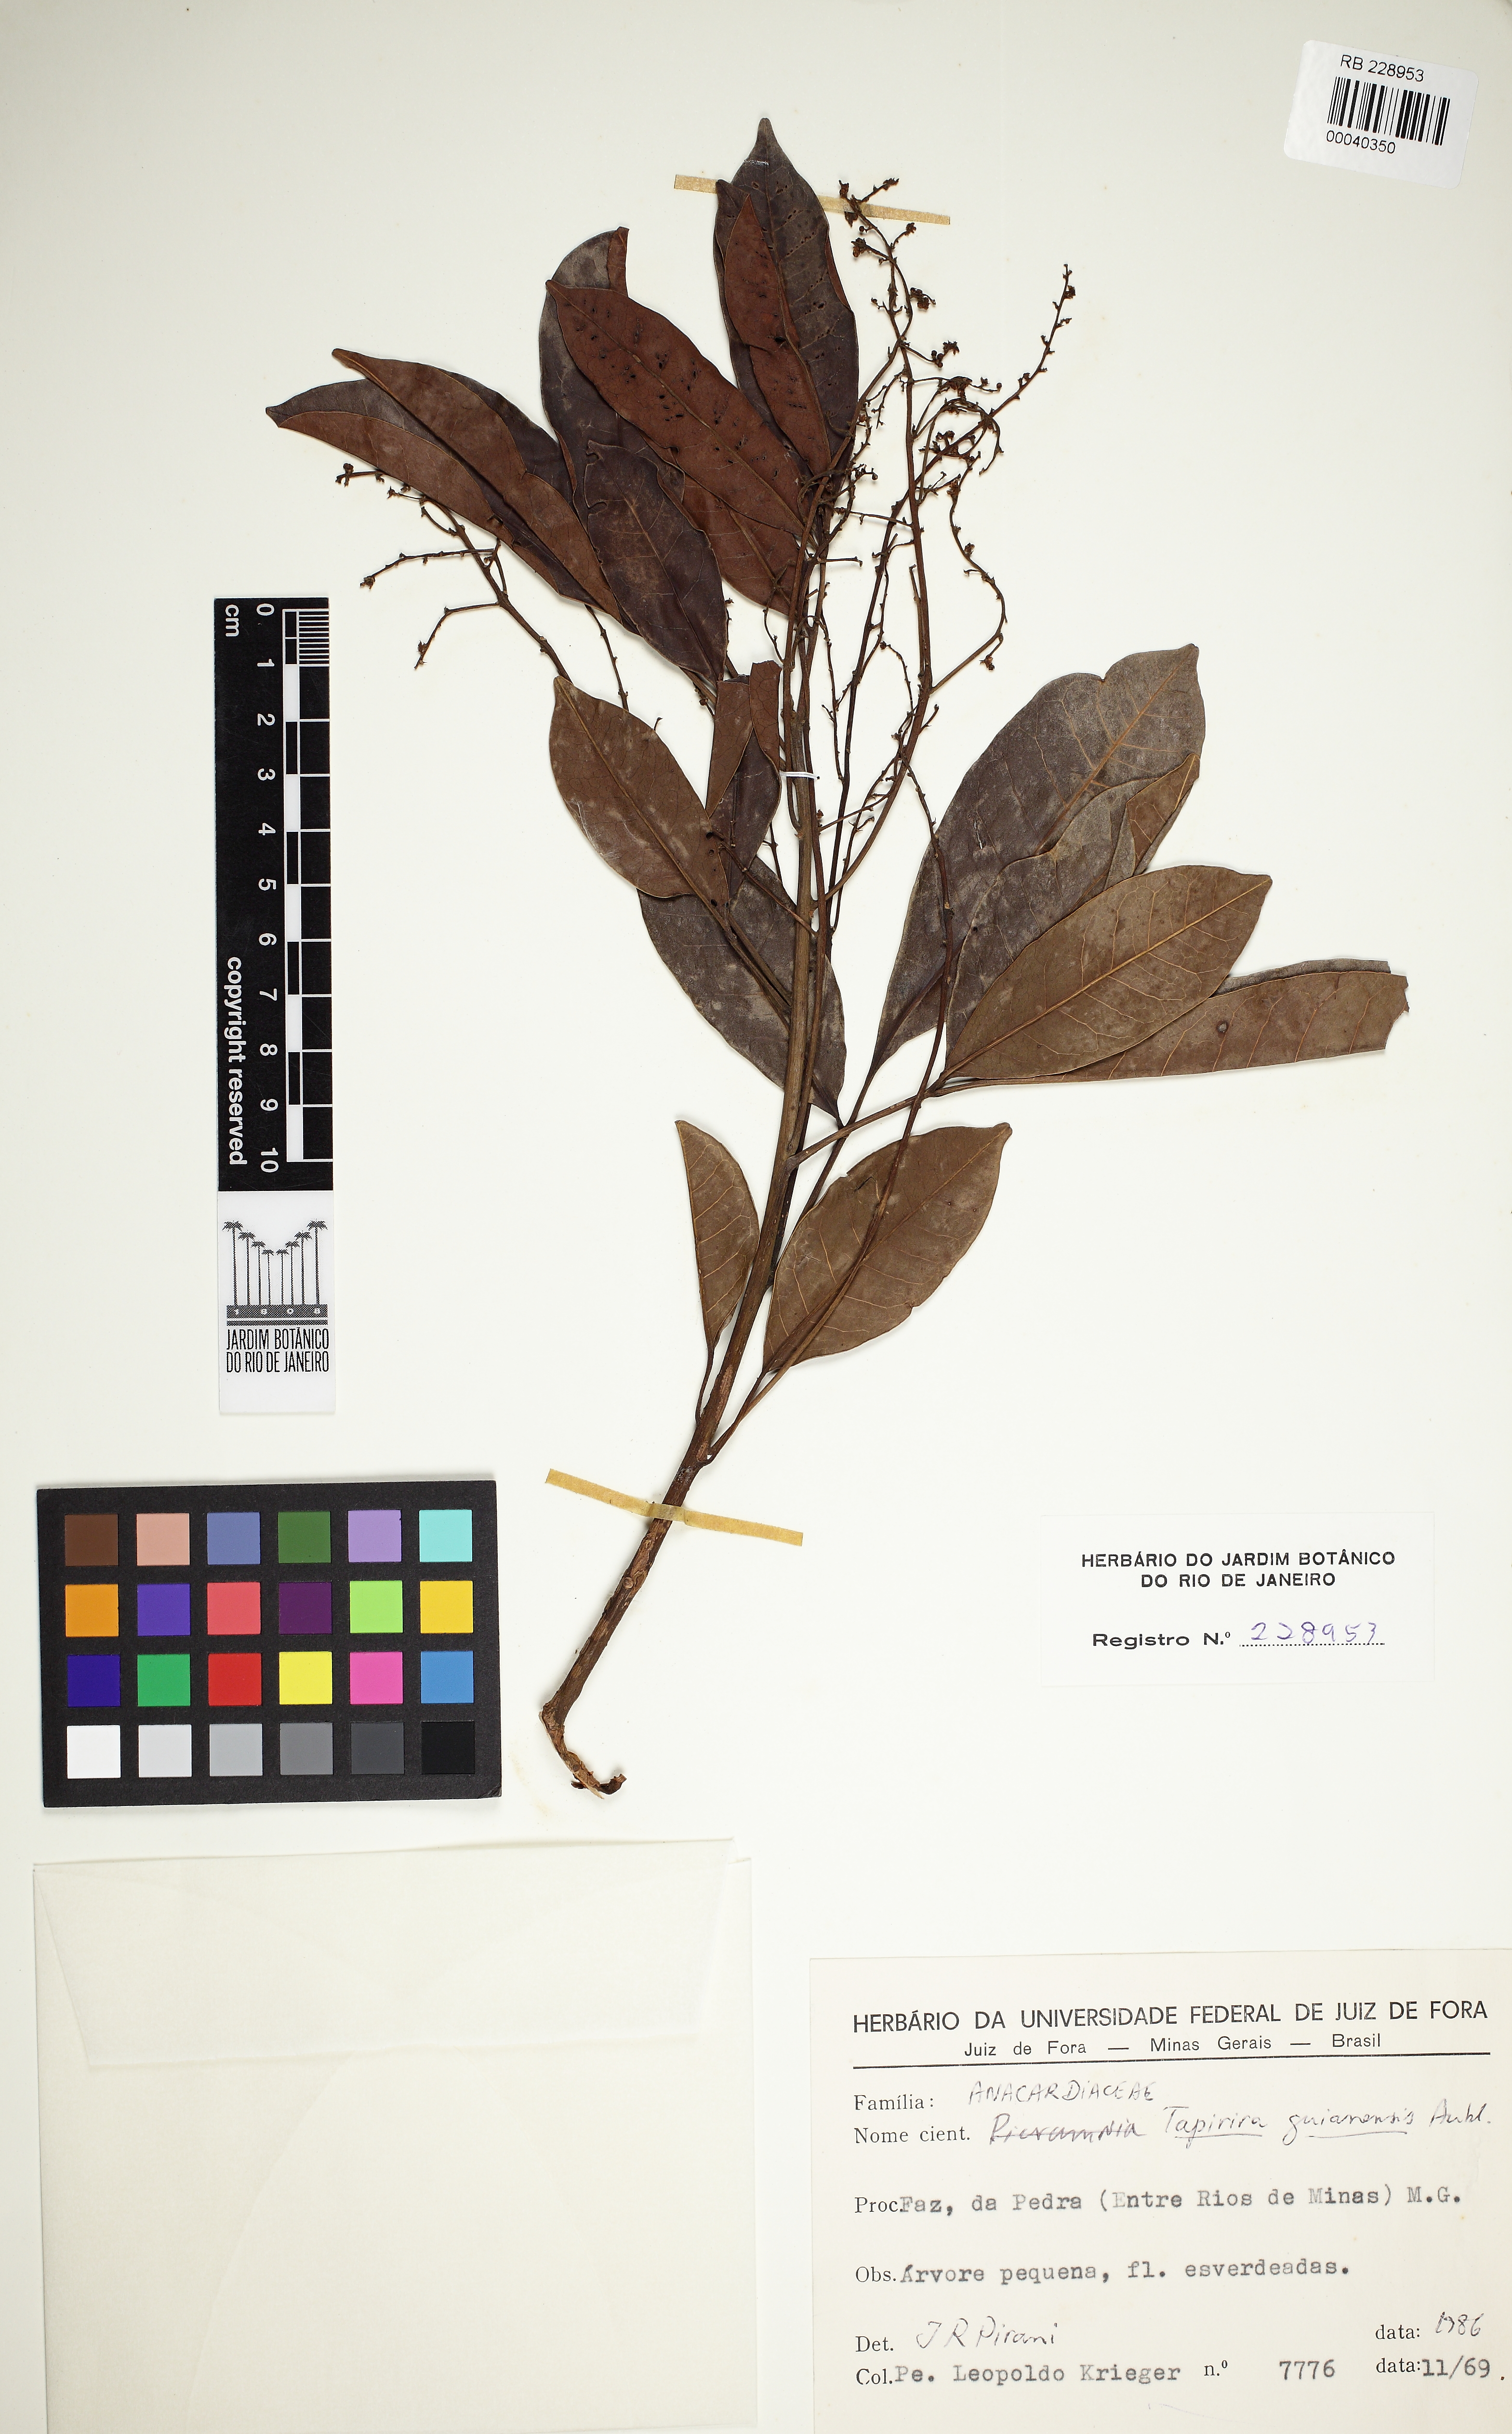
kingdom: Plantae
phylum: Tracheophyta
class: Magnoliopsida
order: Sapindales
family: Anacardiaceae
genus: Tapirira
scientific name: Tapirira guianensis
